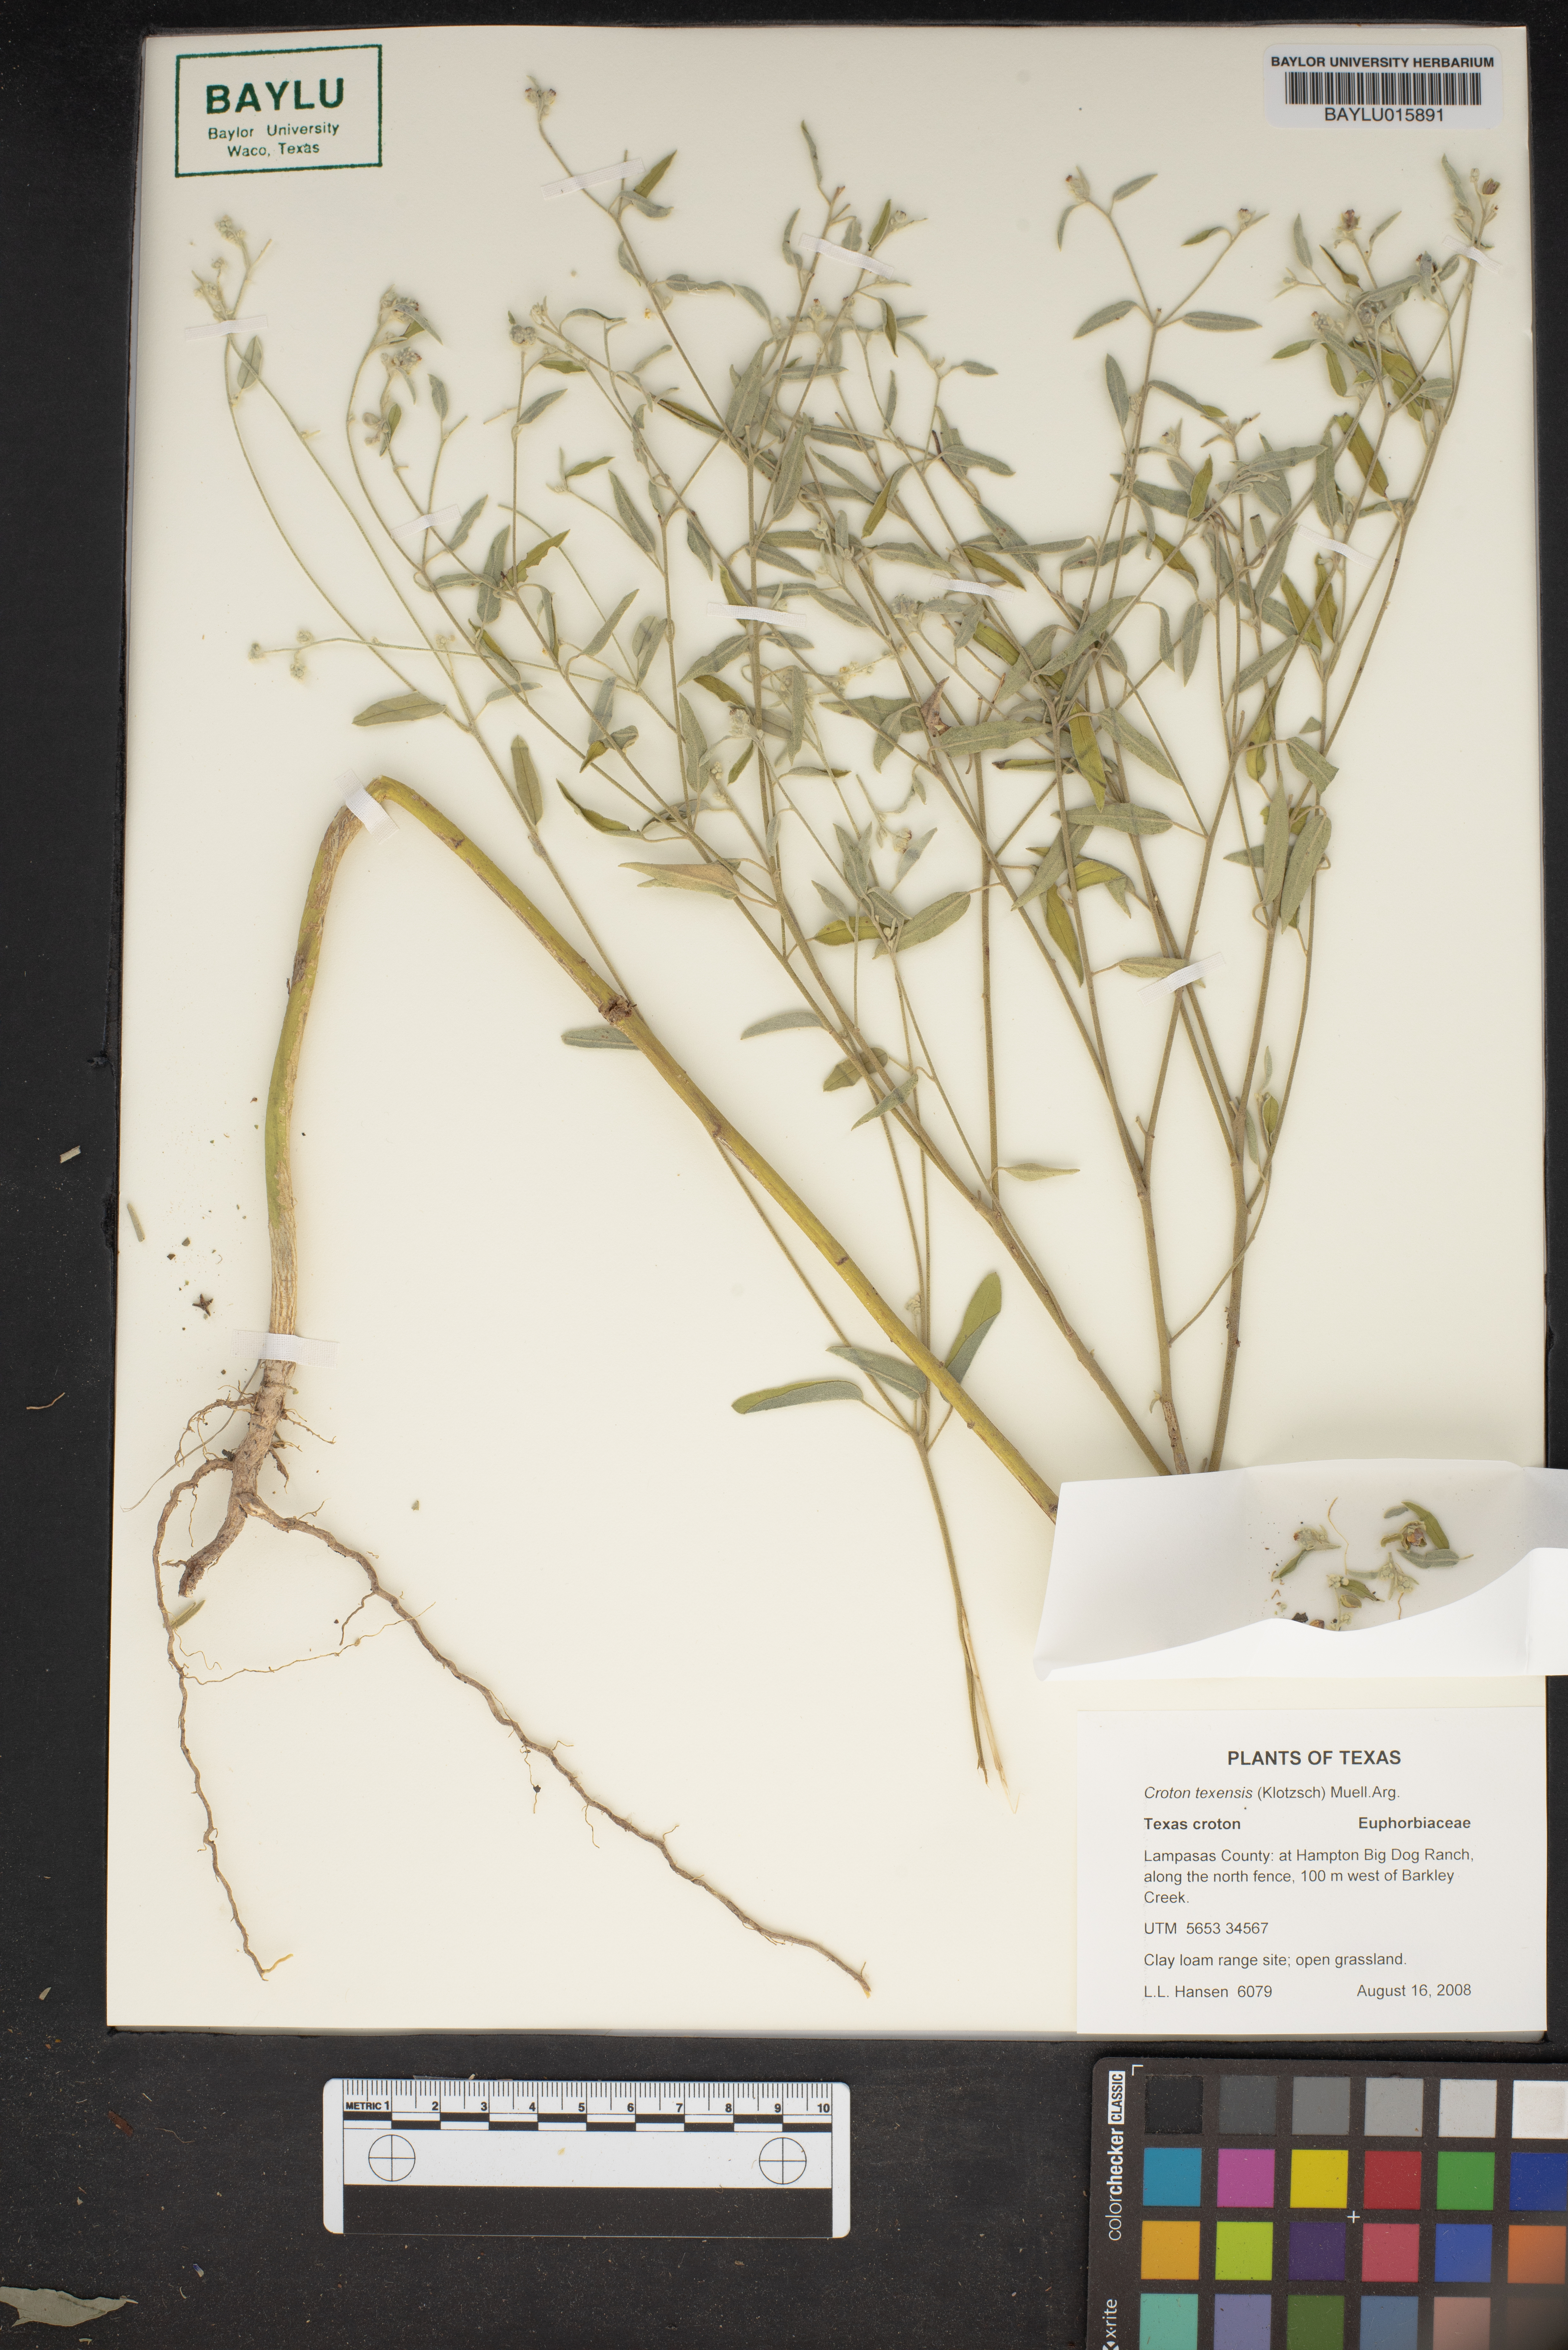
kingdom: Plantae
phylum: Tracheophyta
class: Magnoliopsida
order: Malpighiales
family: Euphorbiaceae
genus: Croton
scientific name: Croton texensis
